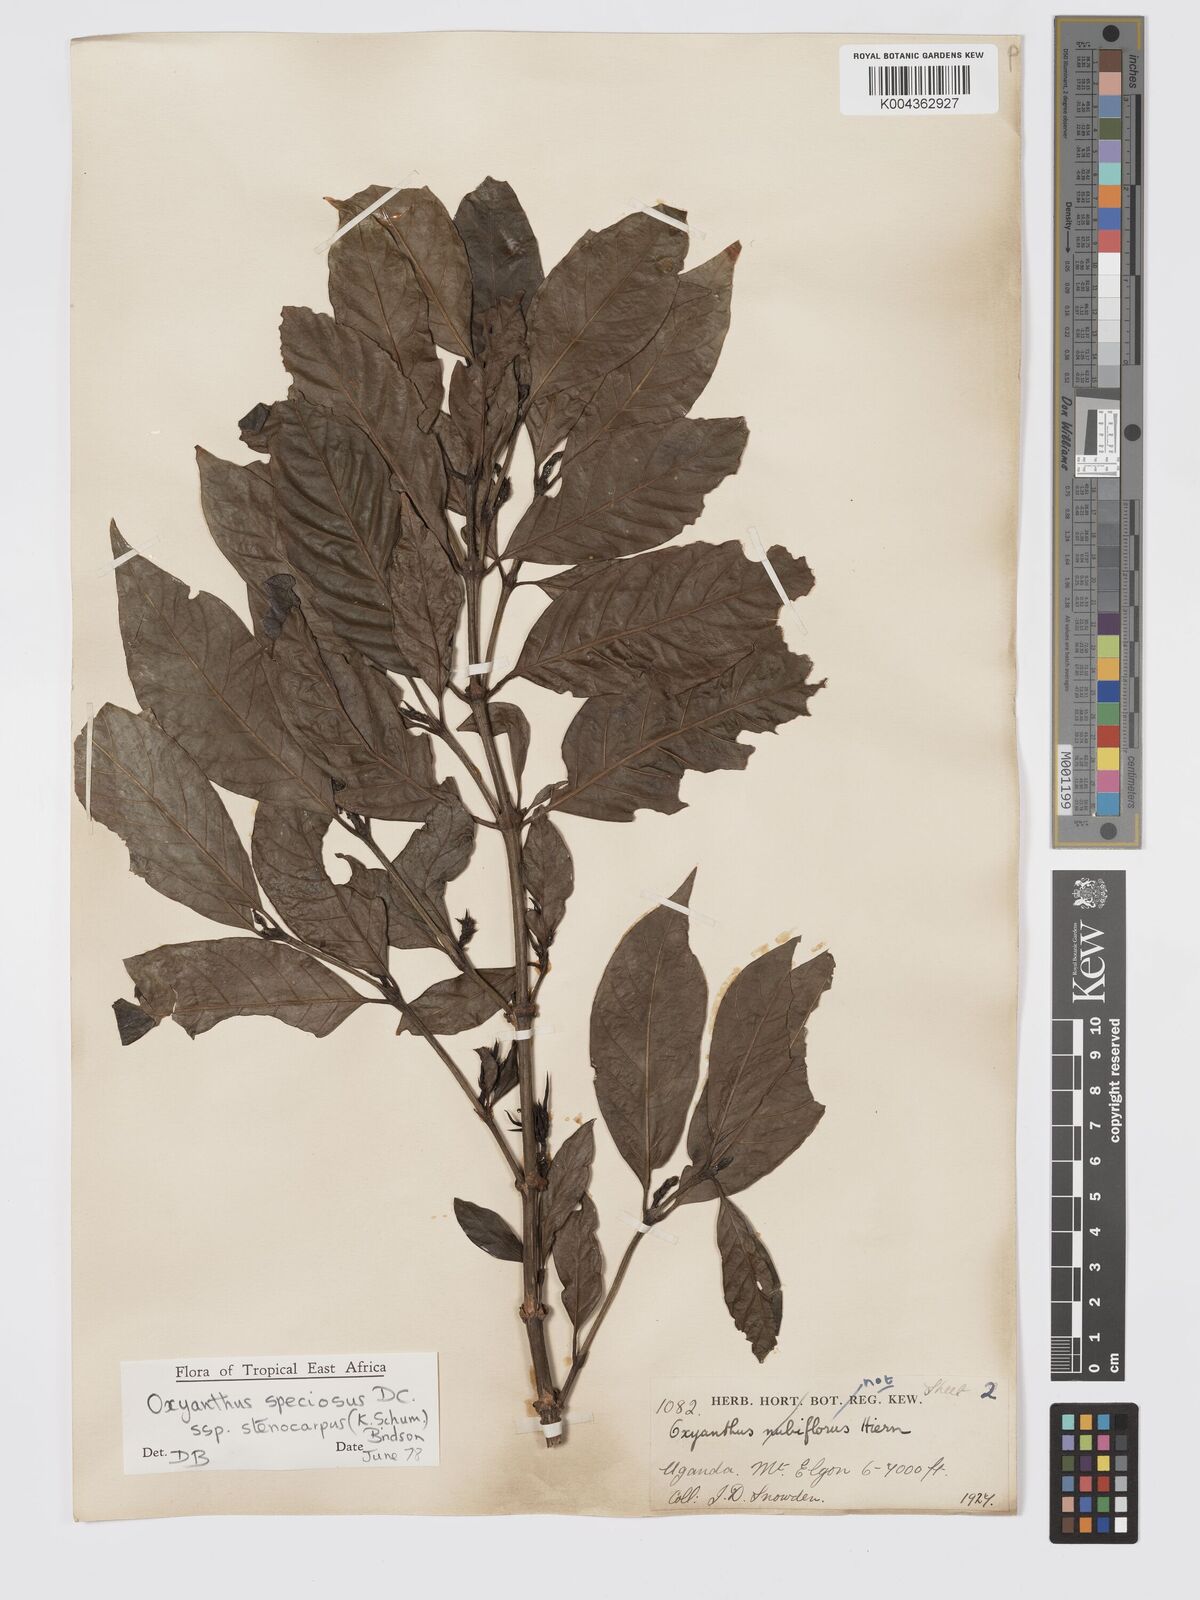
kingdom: Plantae
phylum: Tracheophyta
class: Magnoliopsida
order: Gentianales
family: Rubiaceae
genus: Oxyanthus
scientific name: Oxyanthus
